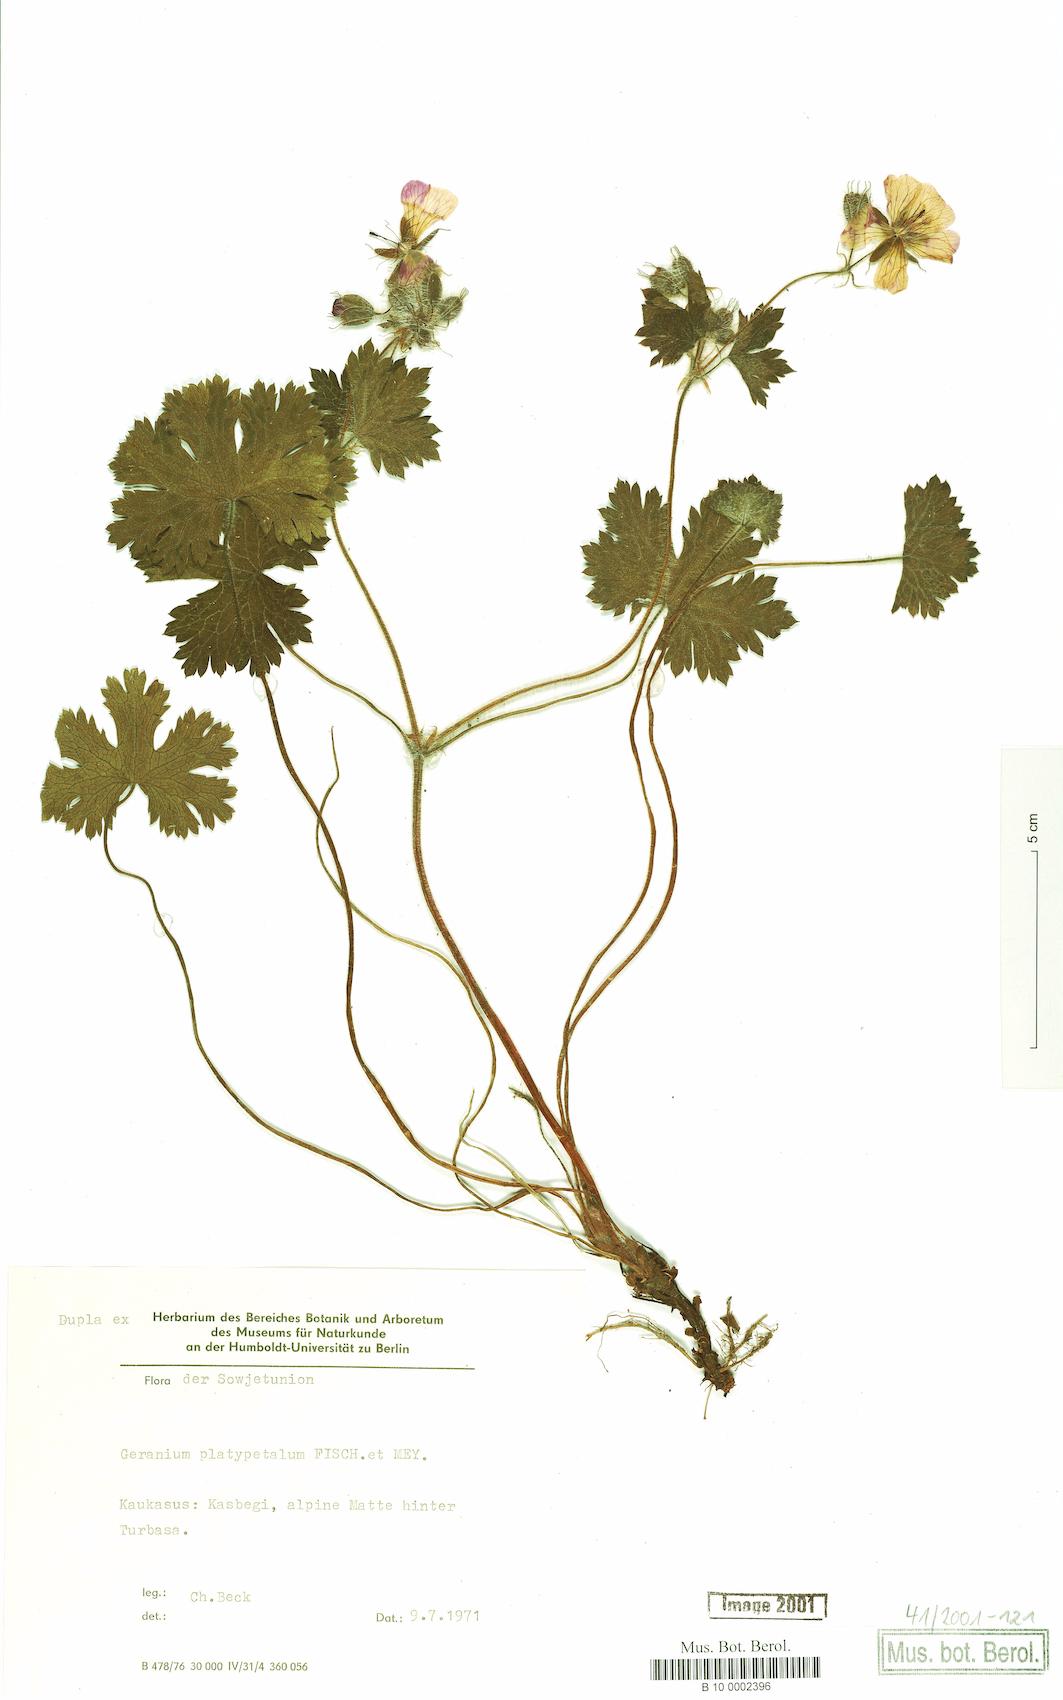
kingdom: Plantae
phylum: Tracheophyta
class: Magnoliopsida
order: Geraniales
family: Geraniaceae
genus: Geranium
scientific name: Geranium platypetalum
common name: Glandular crane's-bill
